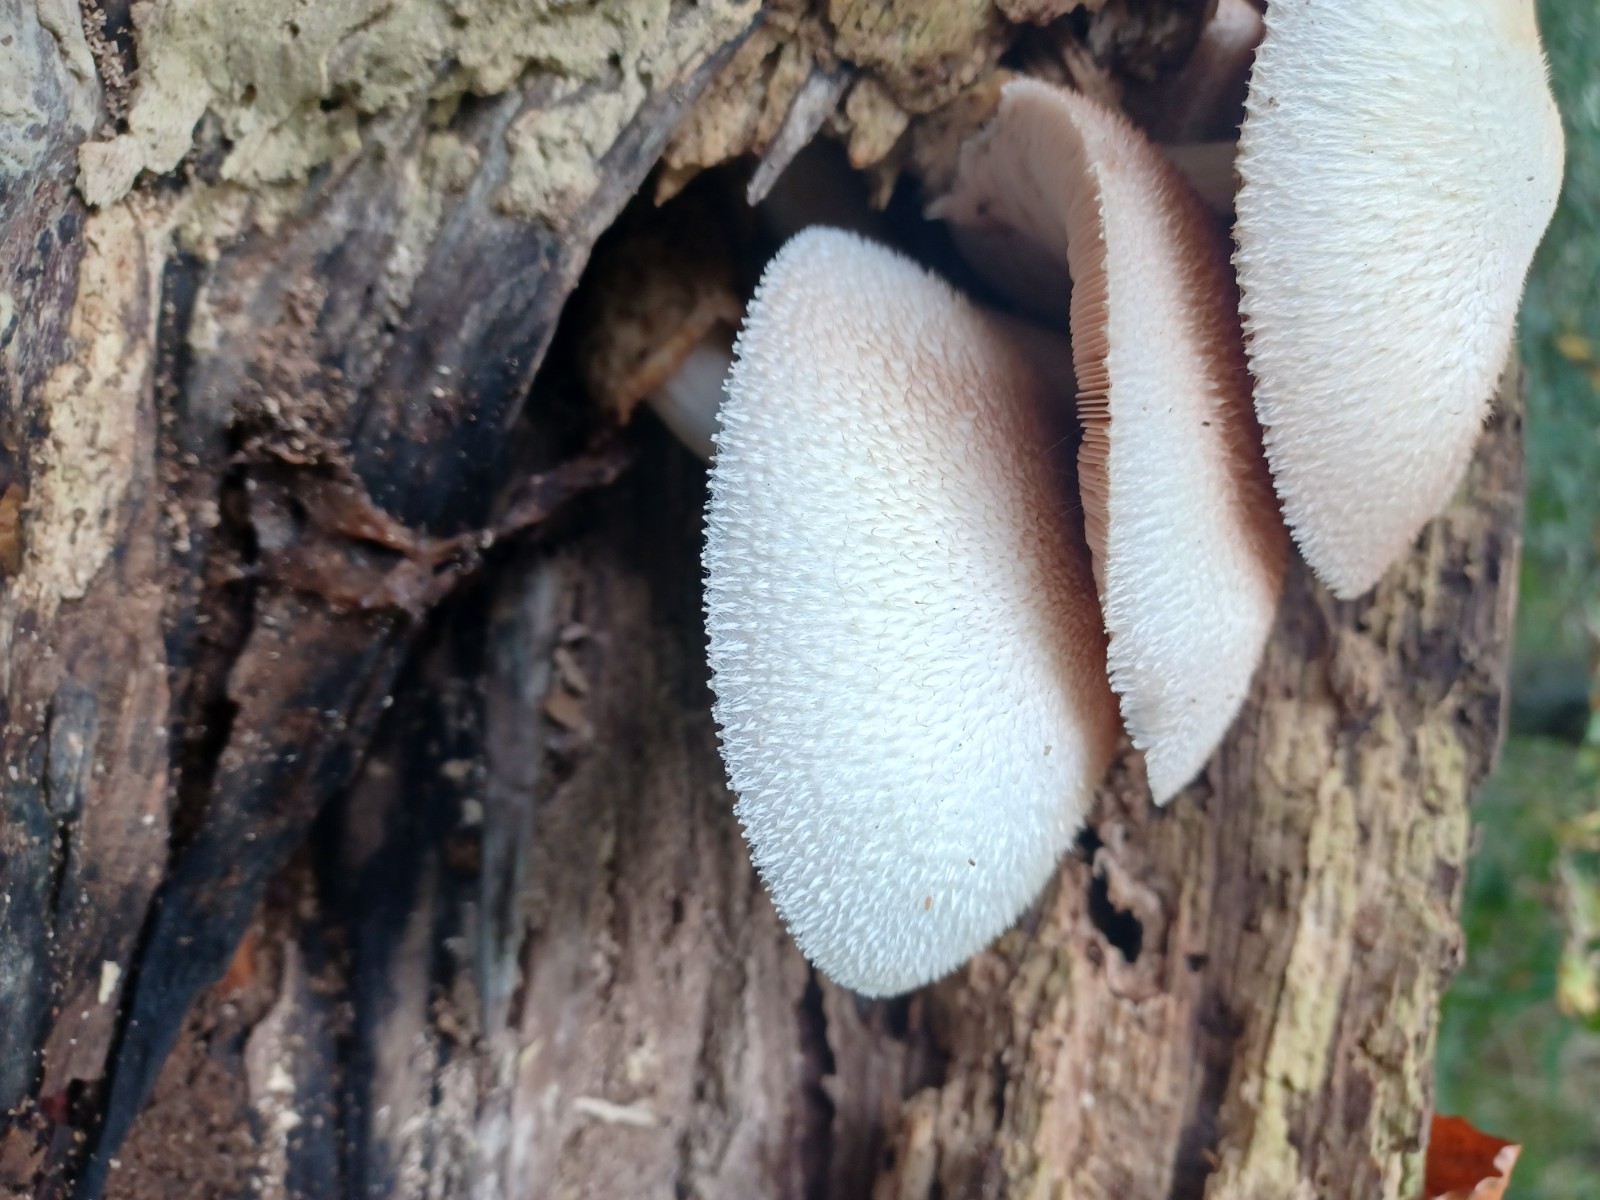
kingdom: Fungi
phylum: Basidiomycota
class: Agaricomycetes
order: Agaricales
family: Pluteaceae
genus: Volvariella
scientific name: Volvariella bombycina
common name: silkehåret posesvamp
